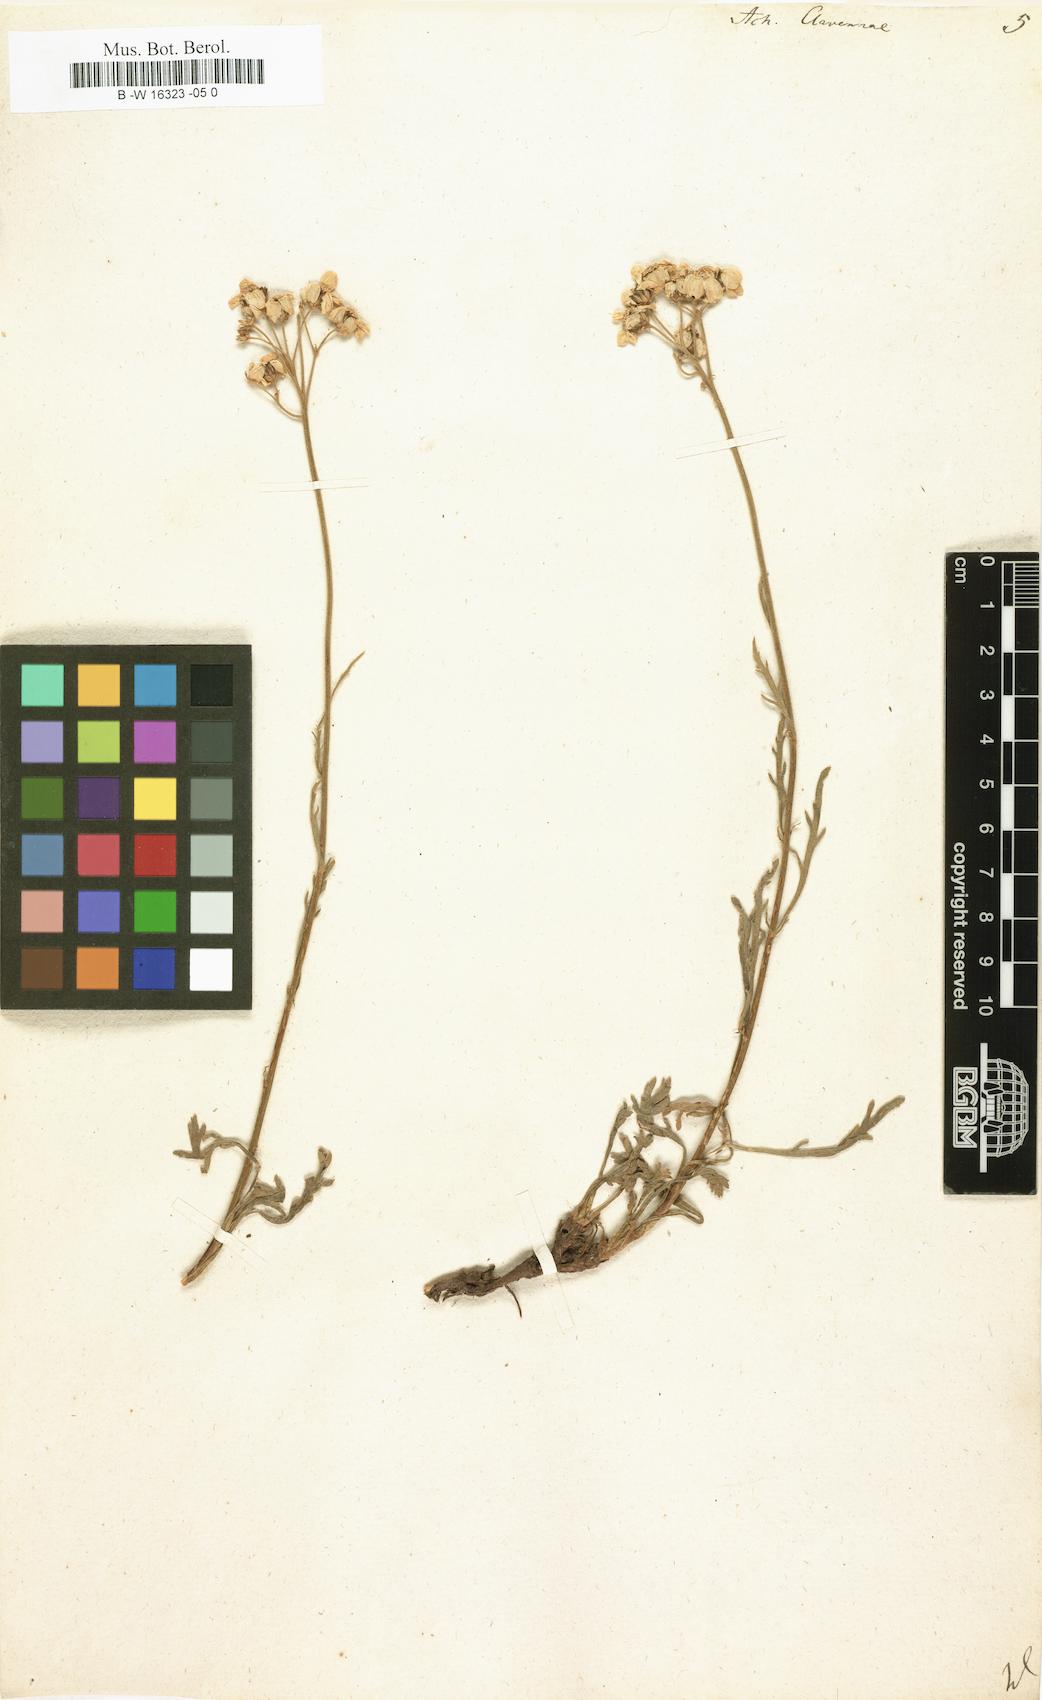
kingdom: Plantae
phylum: Tracheophyta
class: Magnoliopsida
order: Asterales
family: Asteraceae
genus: Achillea
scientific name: Achillea clavennae
